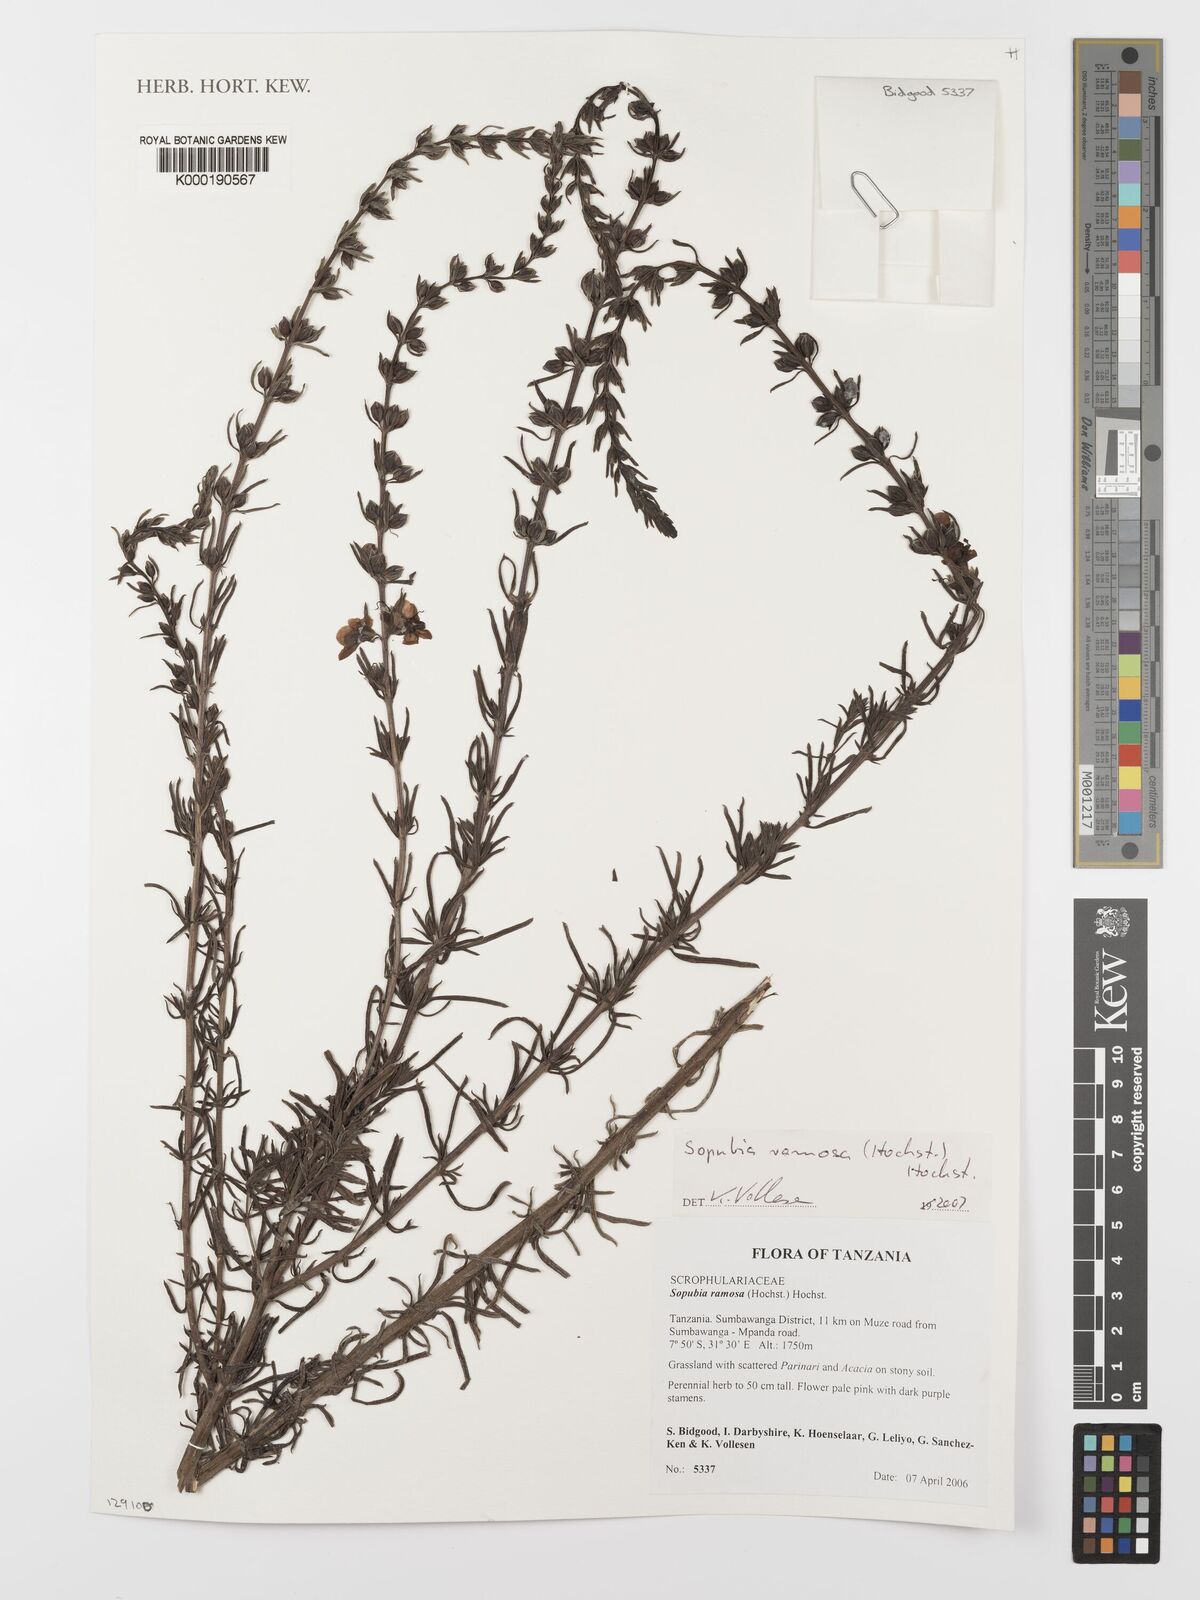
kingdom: Plantae
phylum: Tracheophyta
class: Magnoliopsida
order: Lamiales
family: Orobanchaceae
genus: Sopubia
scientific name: Sopubia ramosa
